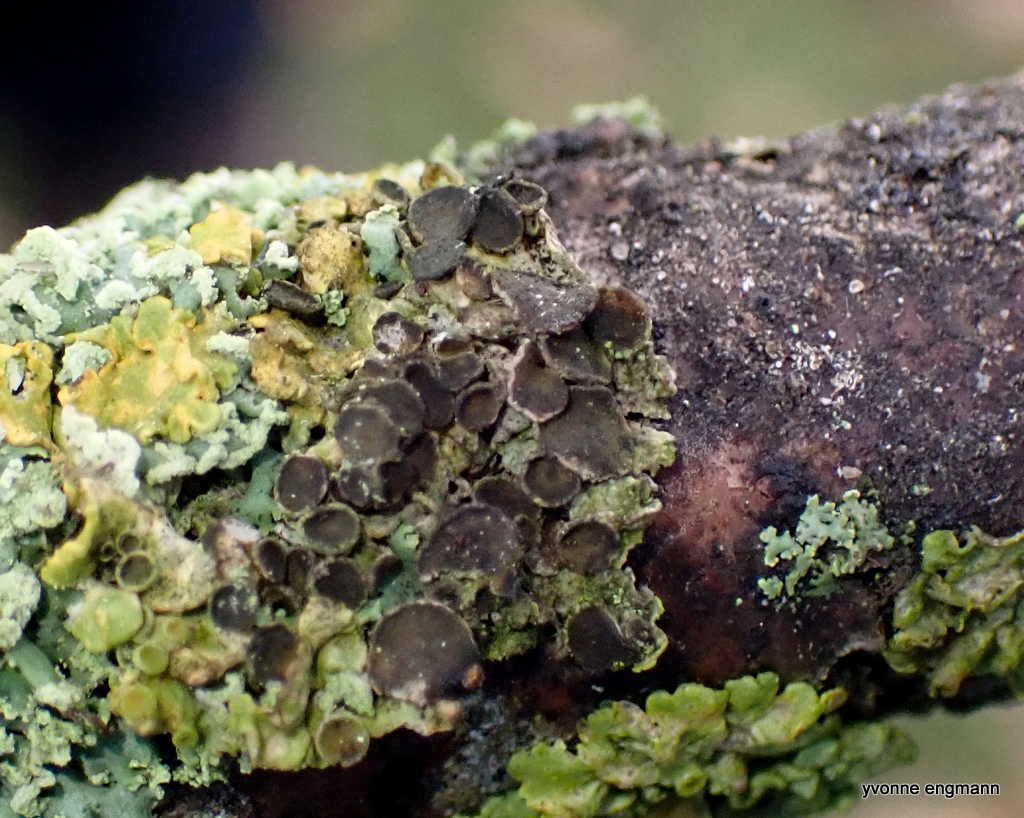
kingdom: Fungi
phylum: Ascomycota
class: Dothideomycetes
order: Mycosphaerellales
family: Teratosphaeriaceae
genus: Xanthoriicola
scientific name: Xanthoriicola physciae
